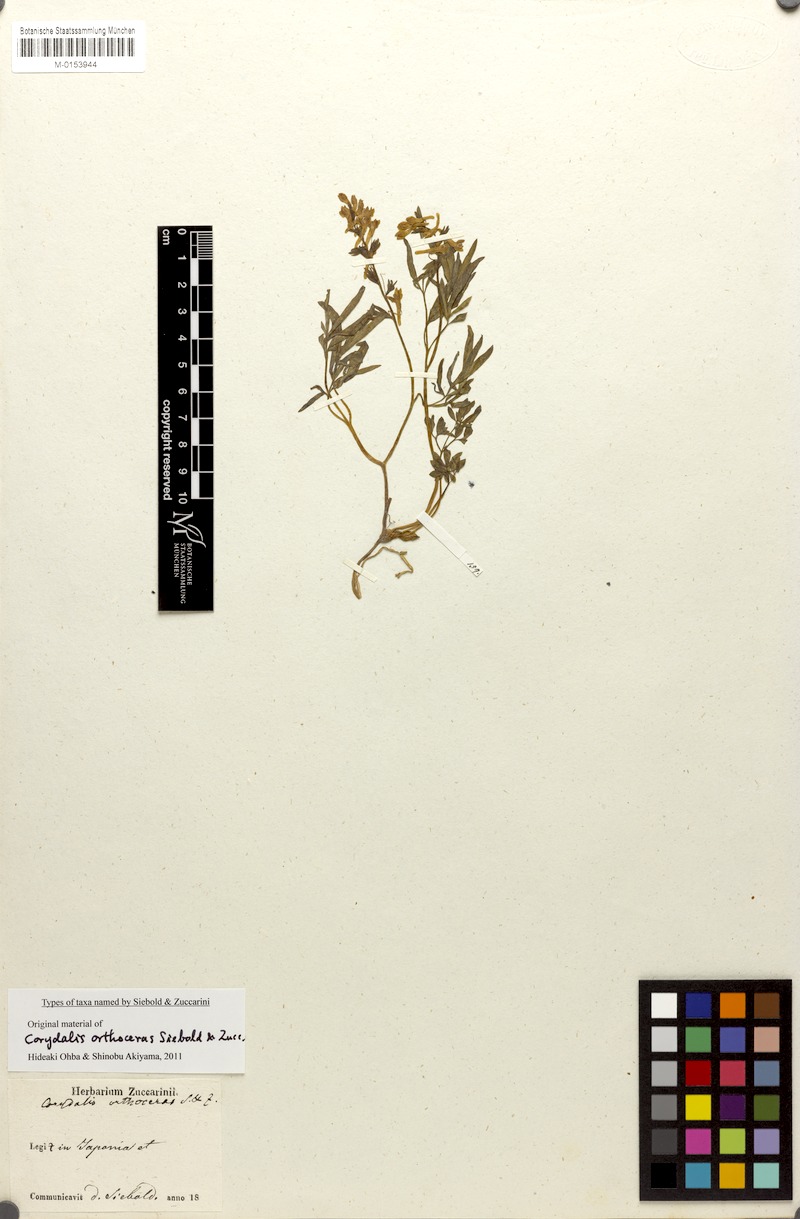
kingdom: Plantae
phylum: Tracheophyta
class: Magnoliopsida
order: Ranunculales
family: Papaveraceae
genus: Corydalis
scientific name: Corydalis lineariloba
